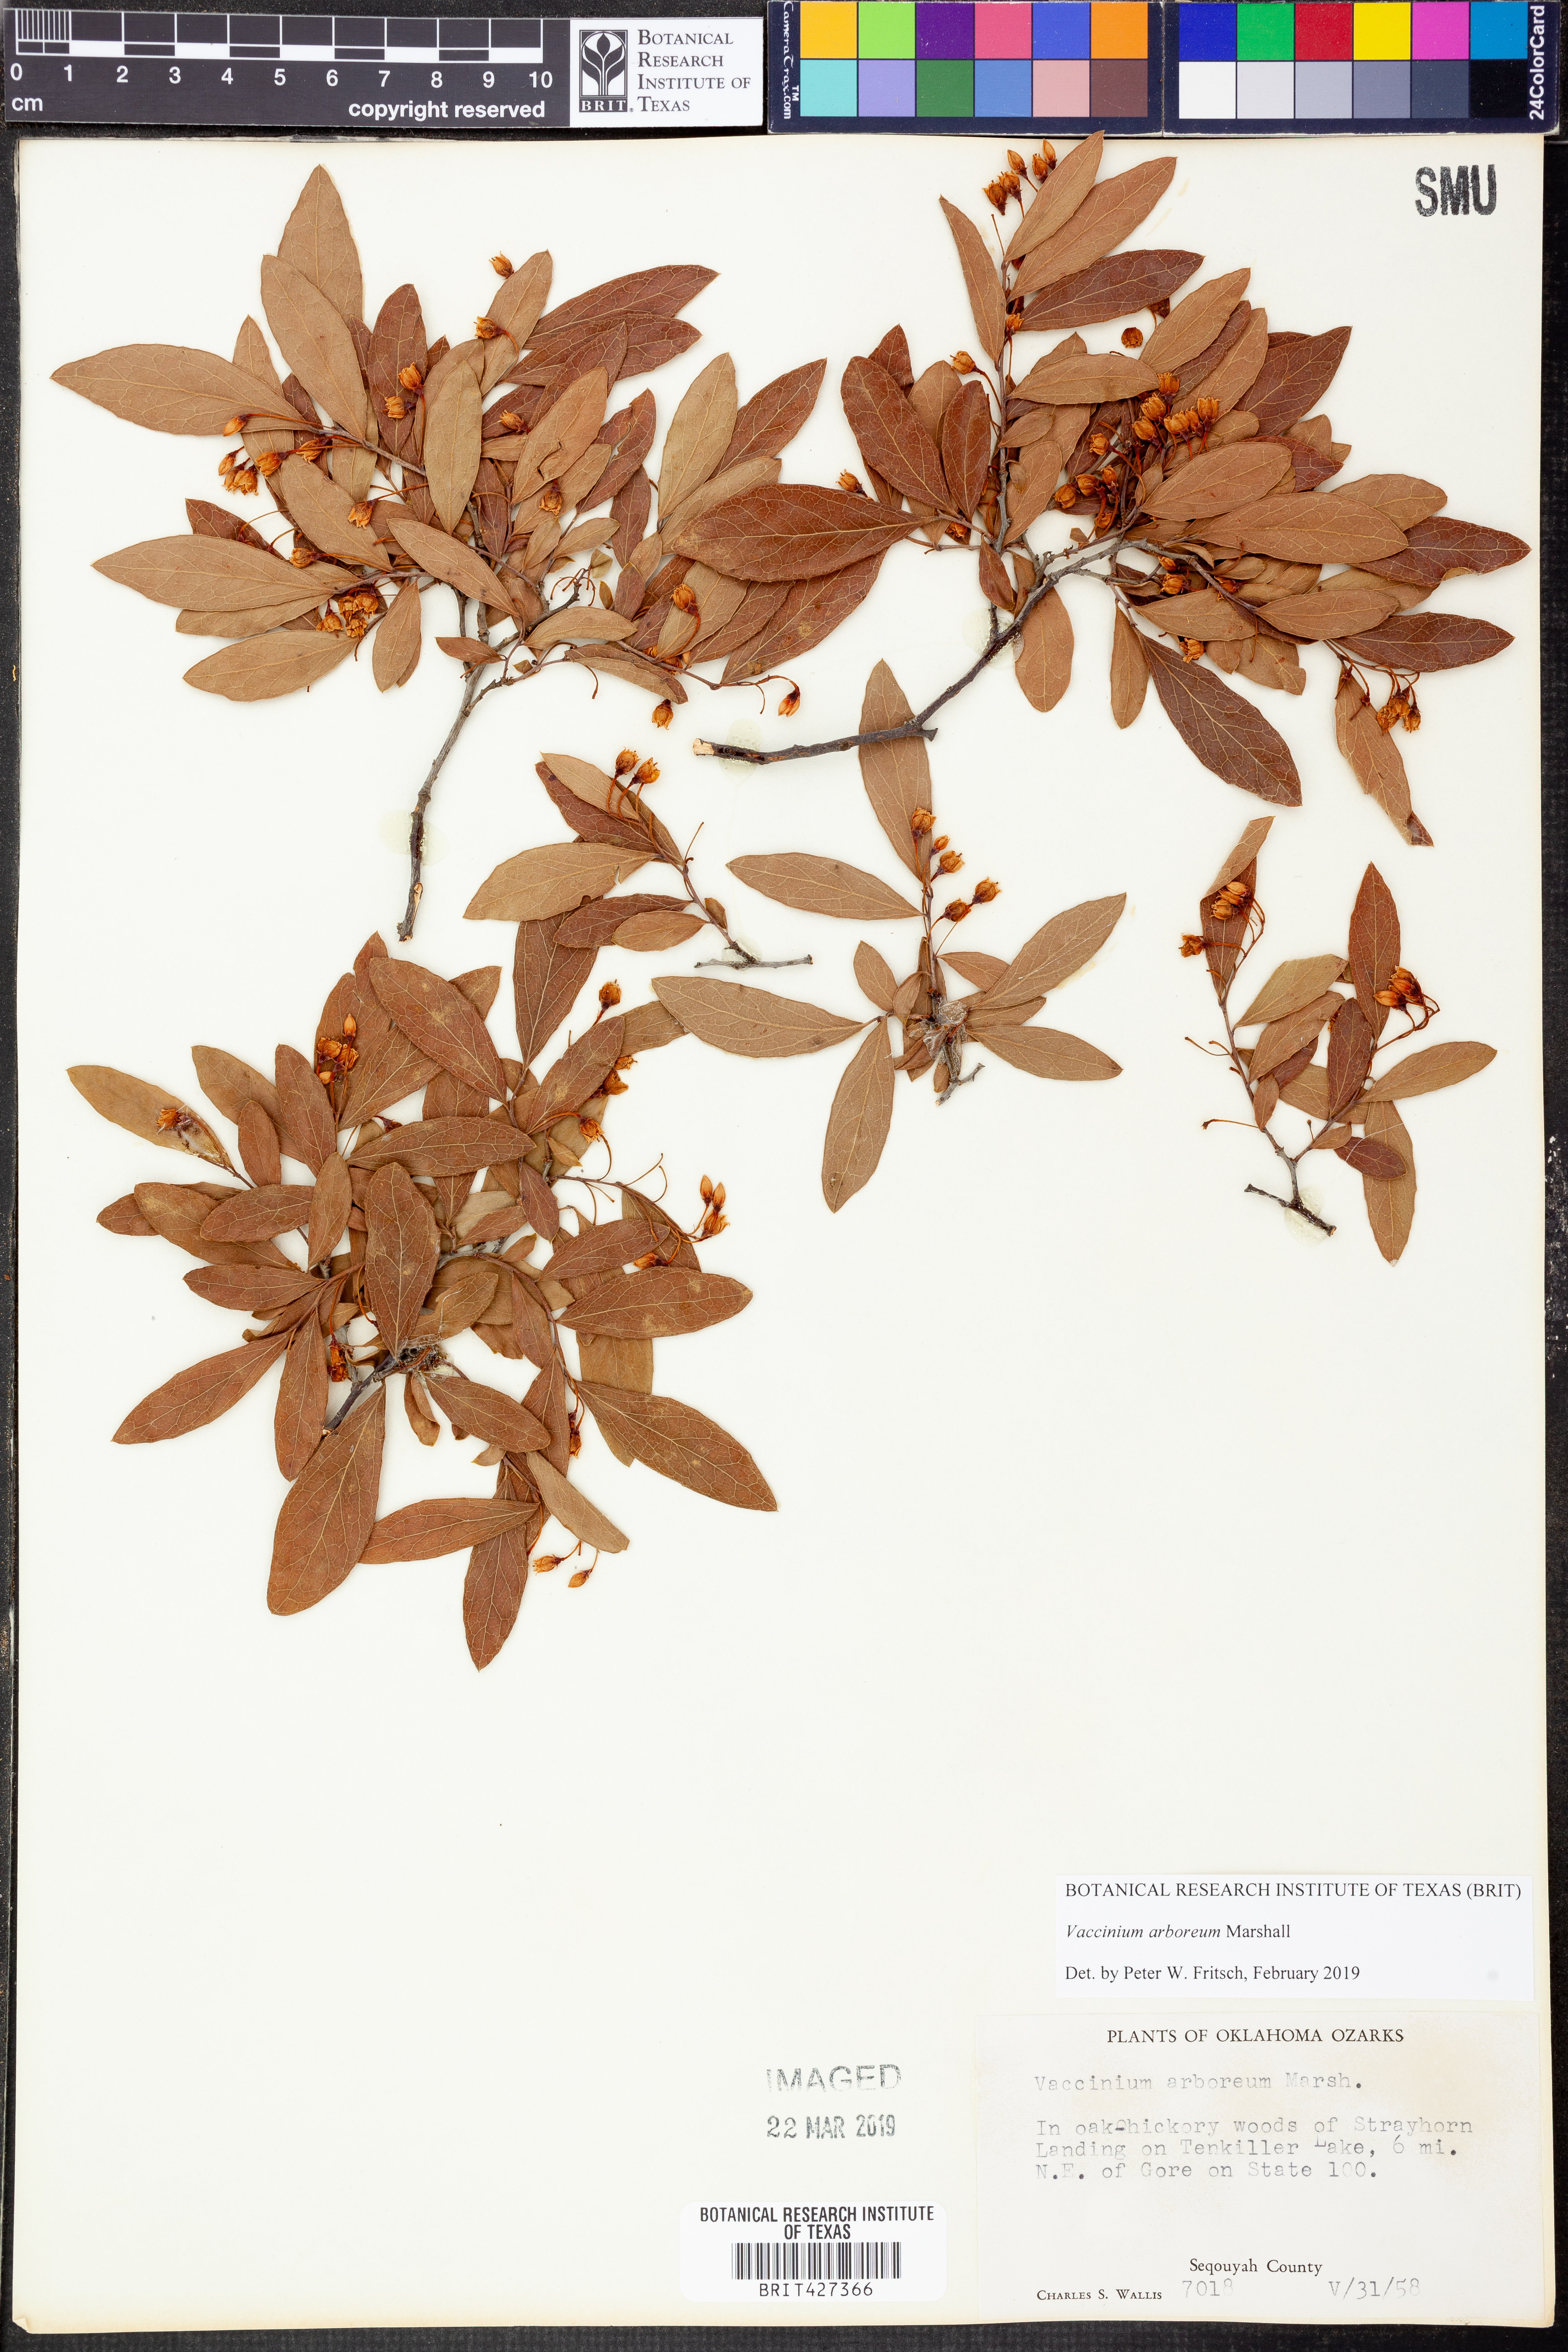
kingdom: Plantae
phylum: Tracheophyta
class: Magnoliopsida
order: Ericales
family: Ericaceae
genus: Vaccinium
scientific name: Vaccinium arboreum
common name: Farkleberry
